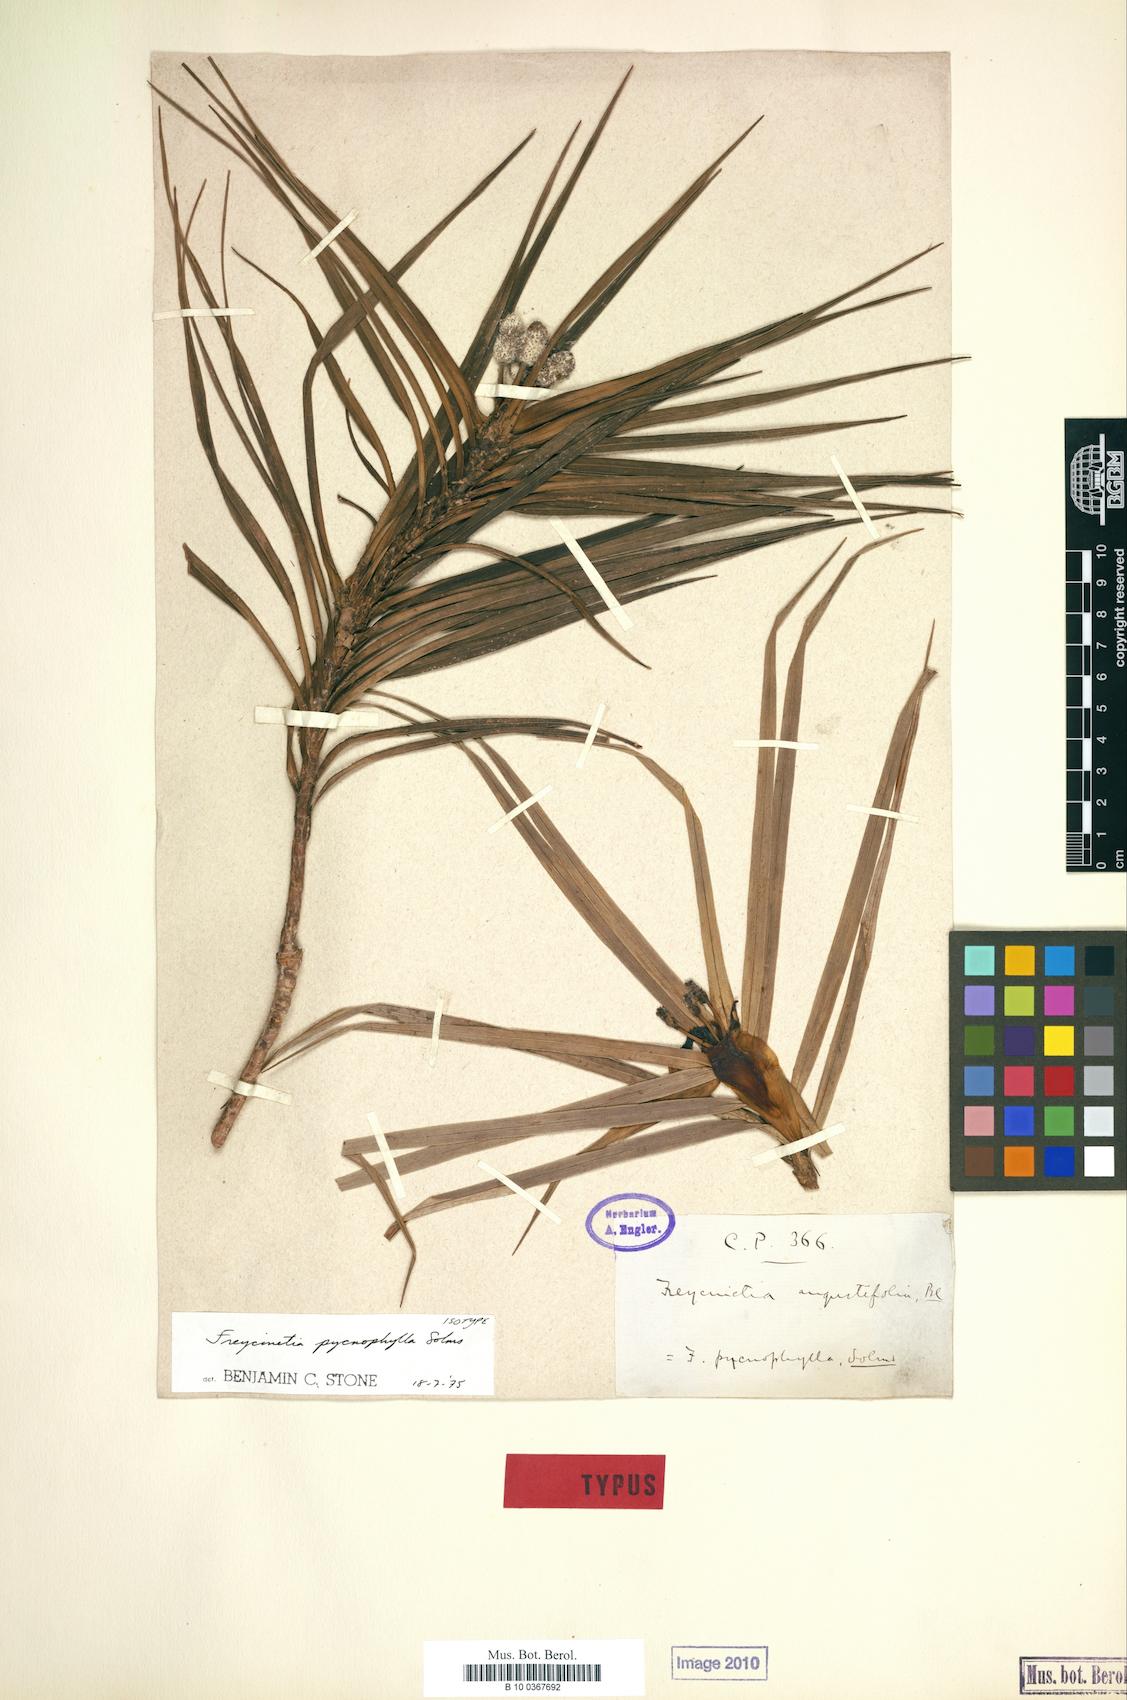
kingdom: Plantae
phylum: Tracheophyta
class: Liliopsida
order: Pandanales
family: Pandanaceae
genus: Freycinetia
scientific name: Freycinetia pycnophylla
